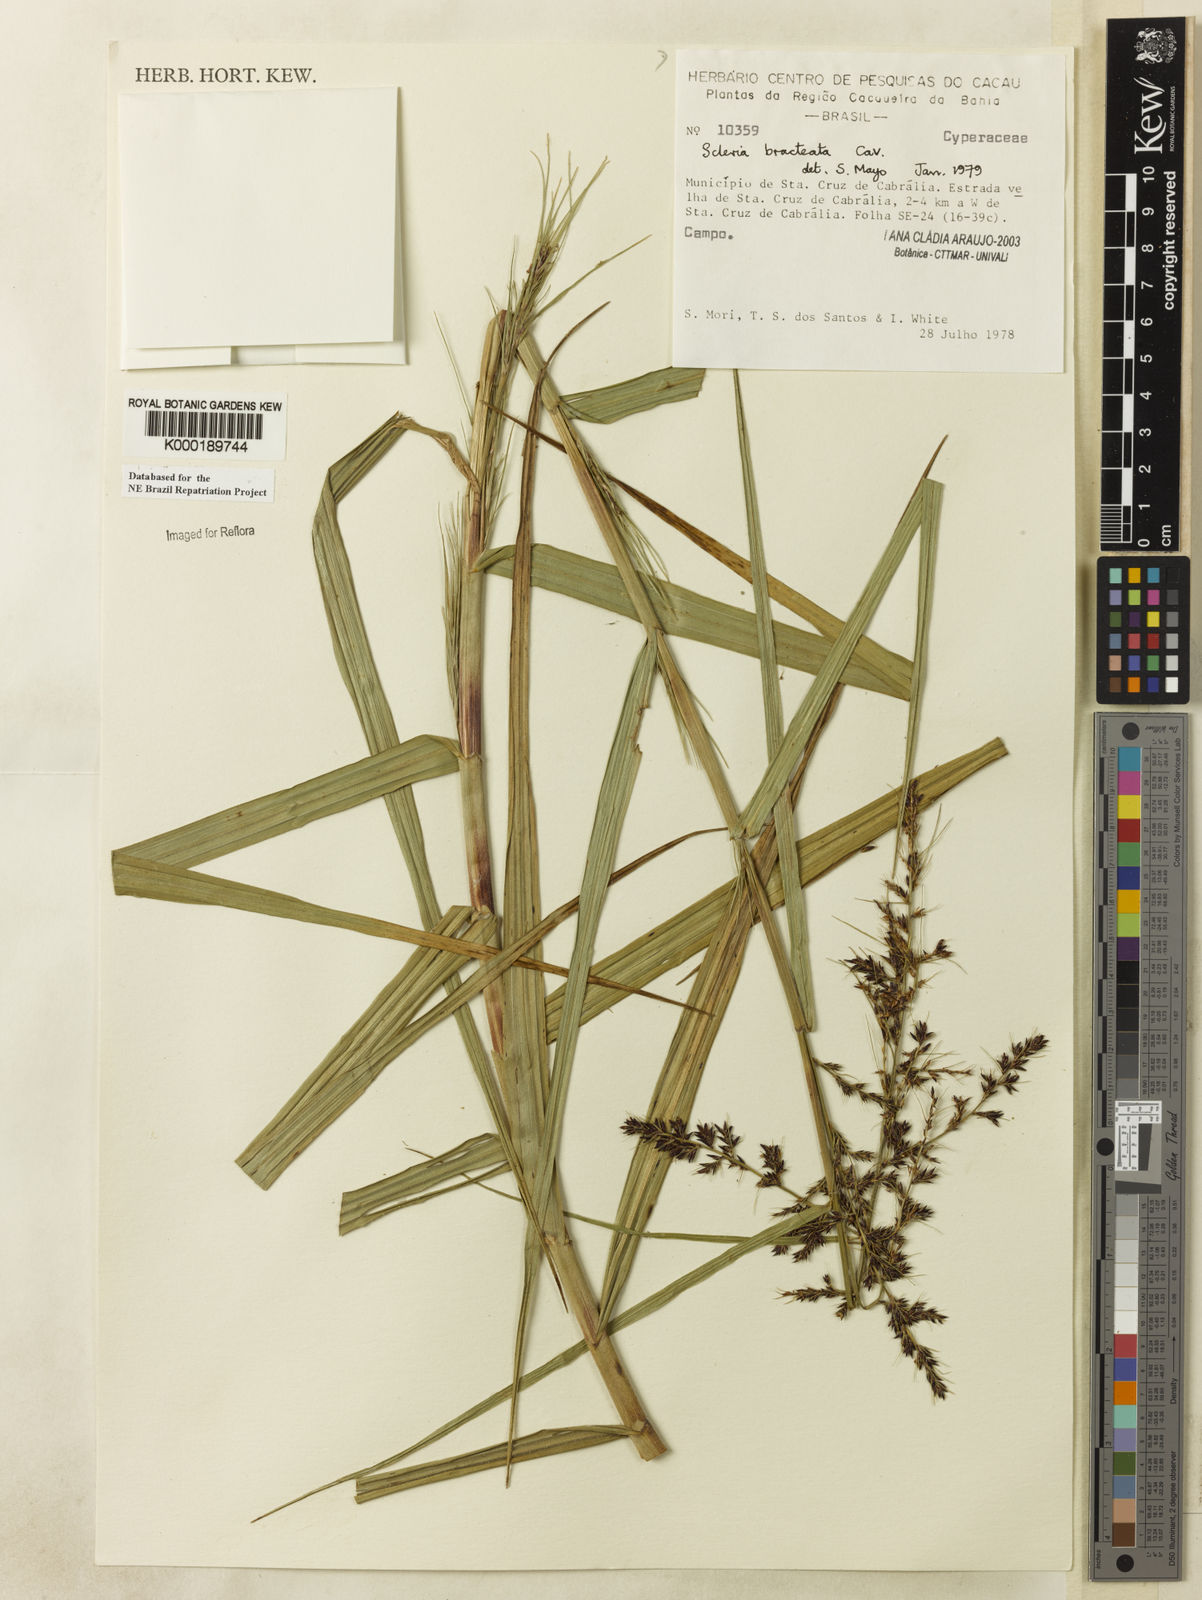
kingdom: Plantae
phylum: Tracheophyta
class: Liliopsida
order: Poales
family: Cyperaceae
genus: Scleria
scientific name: Scleria bracteata
